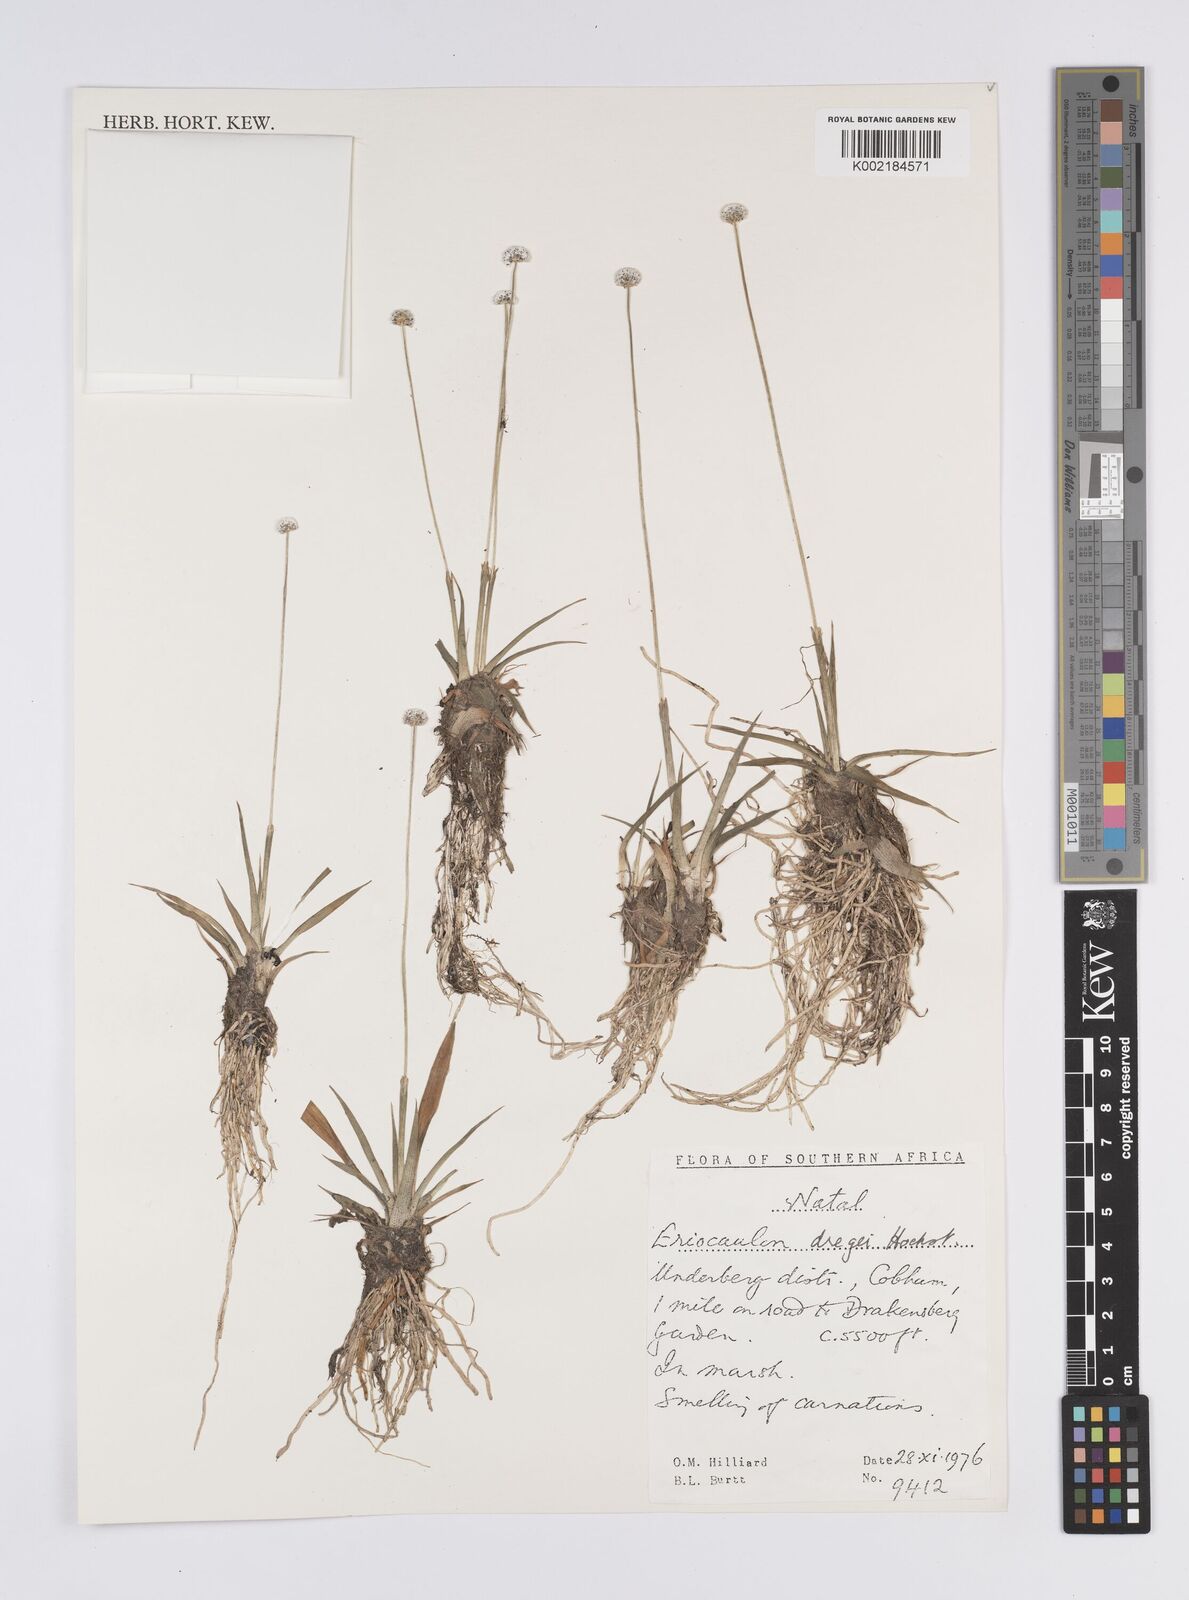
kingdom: Plantae
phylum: Tracheophyta
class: Liliopsida
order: Poales
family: Eriocaulaceae
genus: Eriocaulon
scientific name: Eriocaulon sonderianum
